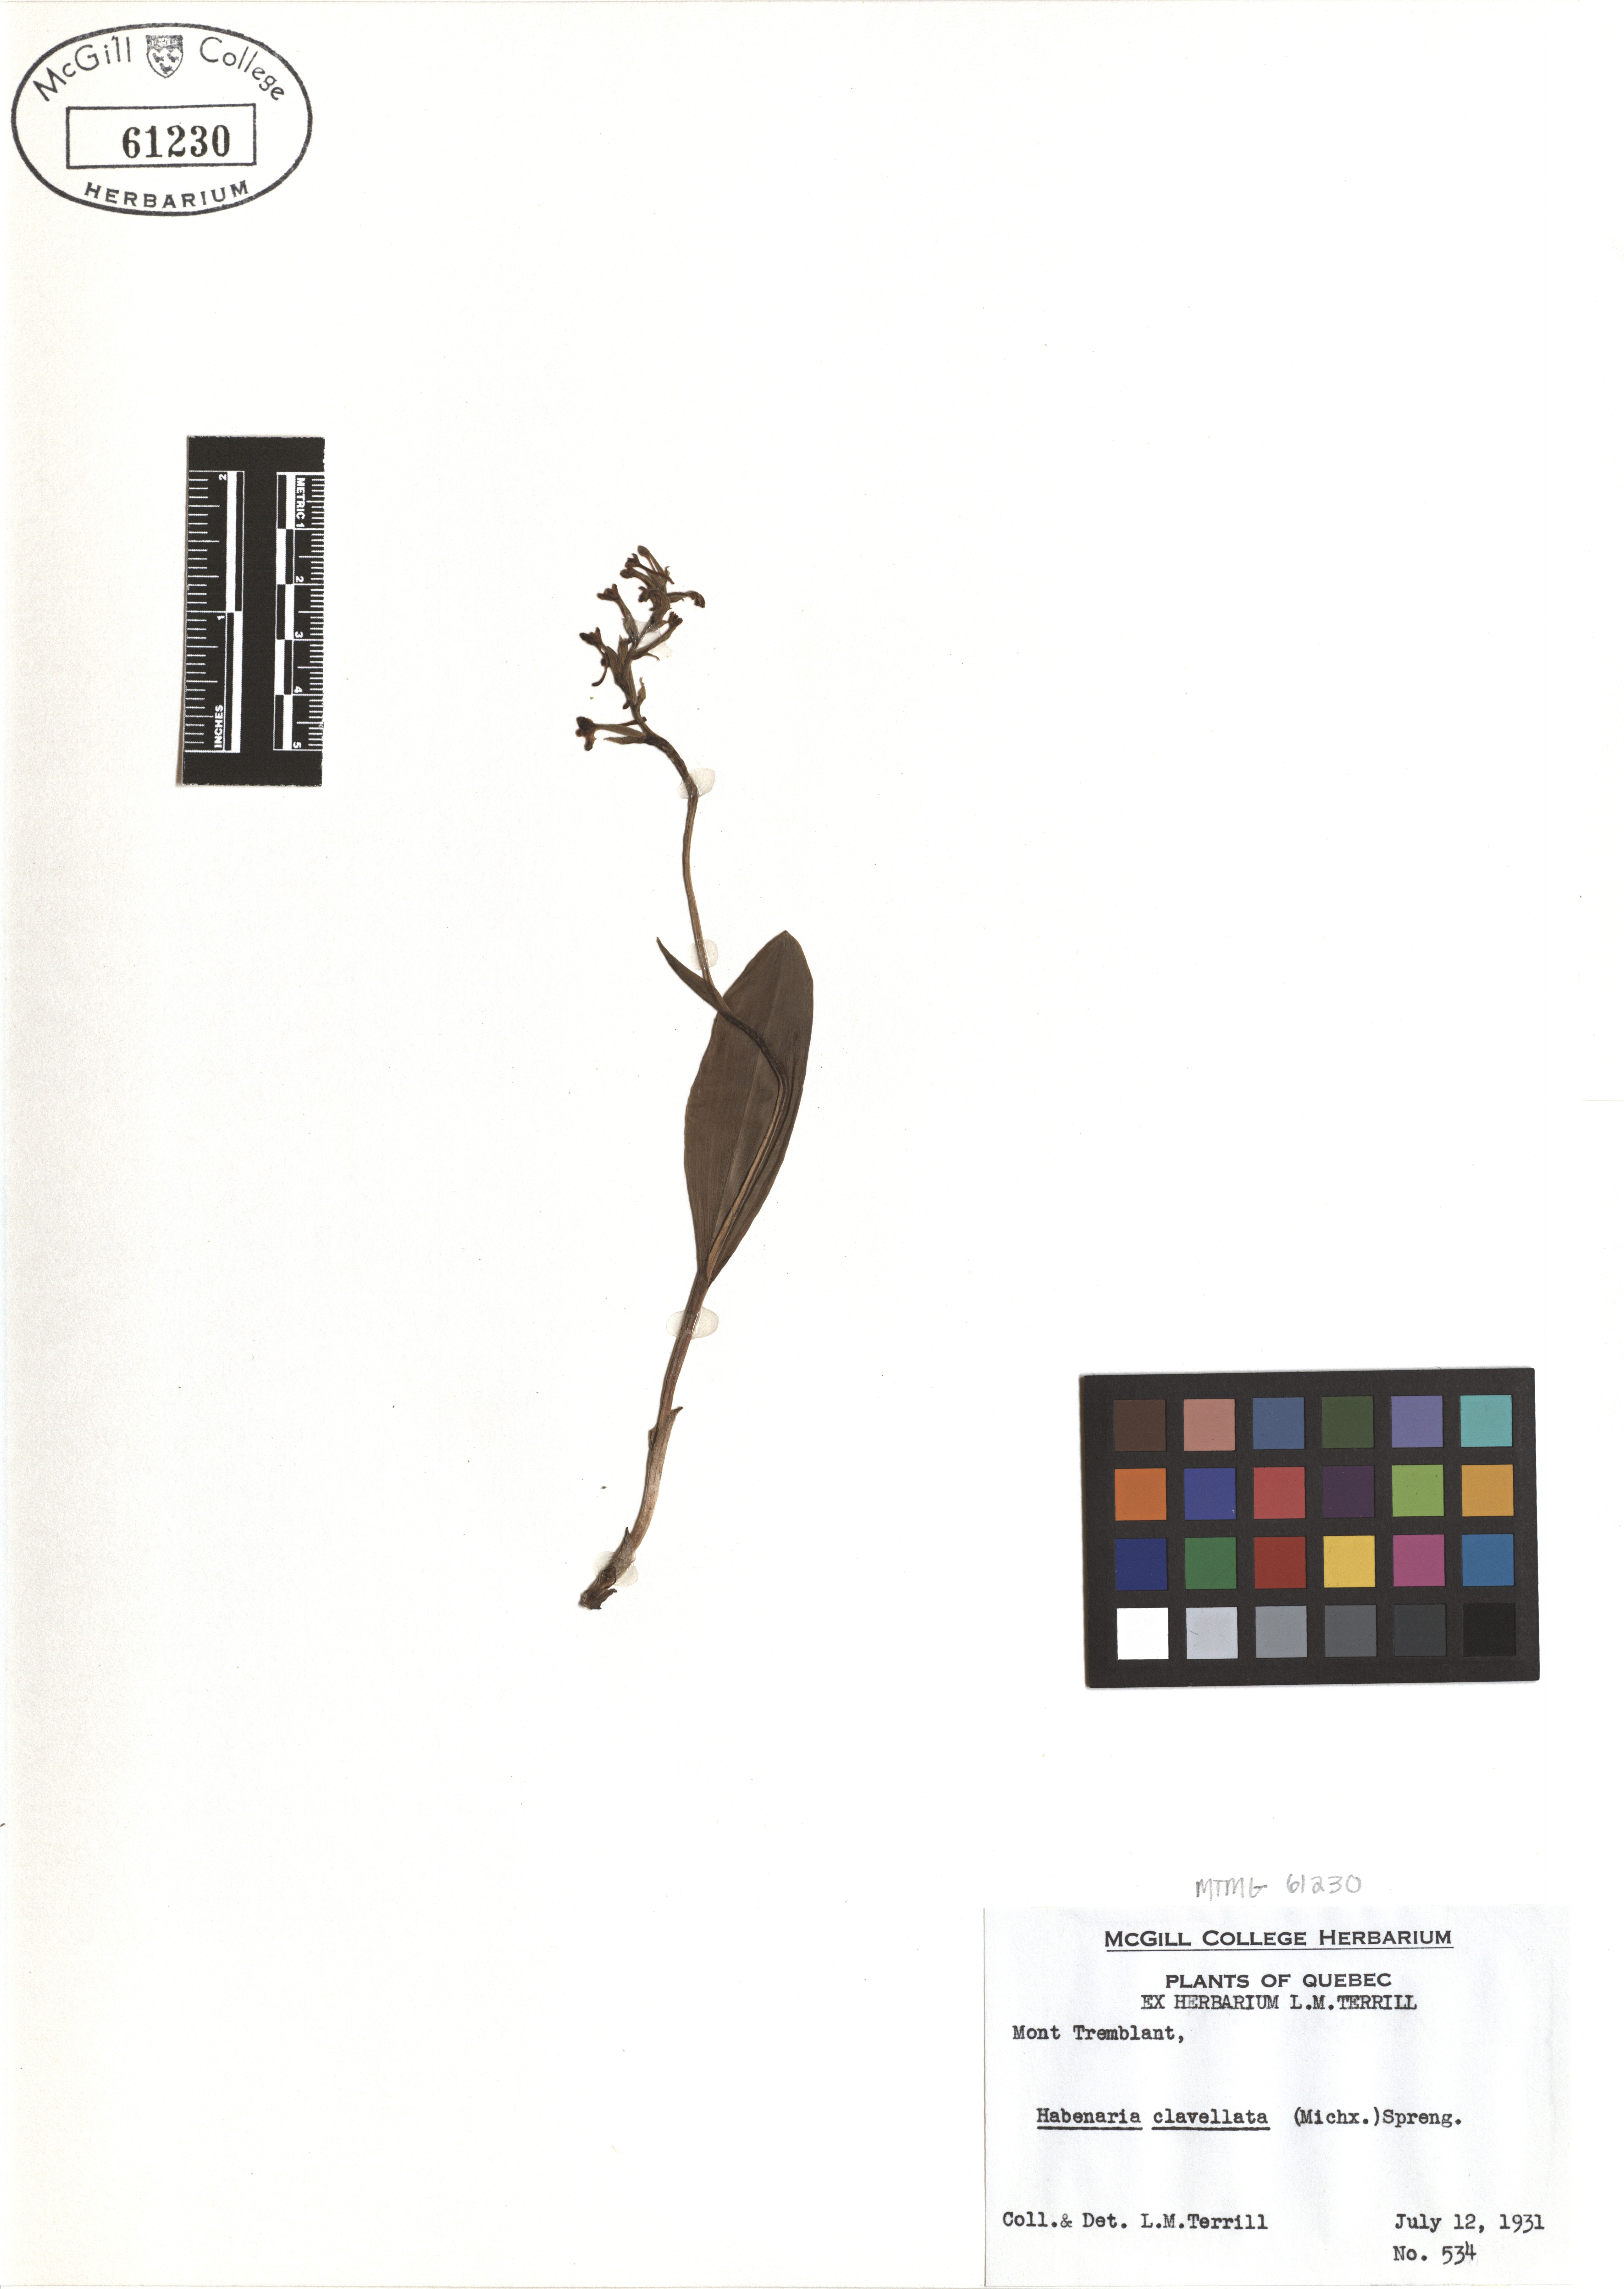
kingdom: Plantae
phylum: Tracheophyta
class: Liliopsida
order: Asparagales
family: Orchidaceae
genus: Platanthera
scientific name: Platanthera clavellata
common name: Club-spur orchid
